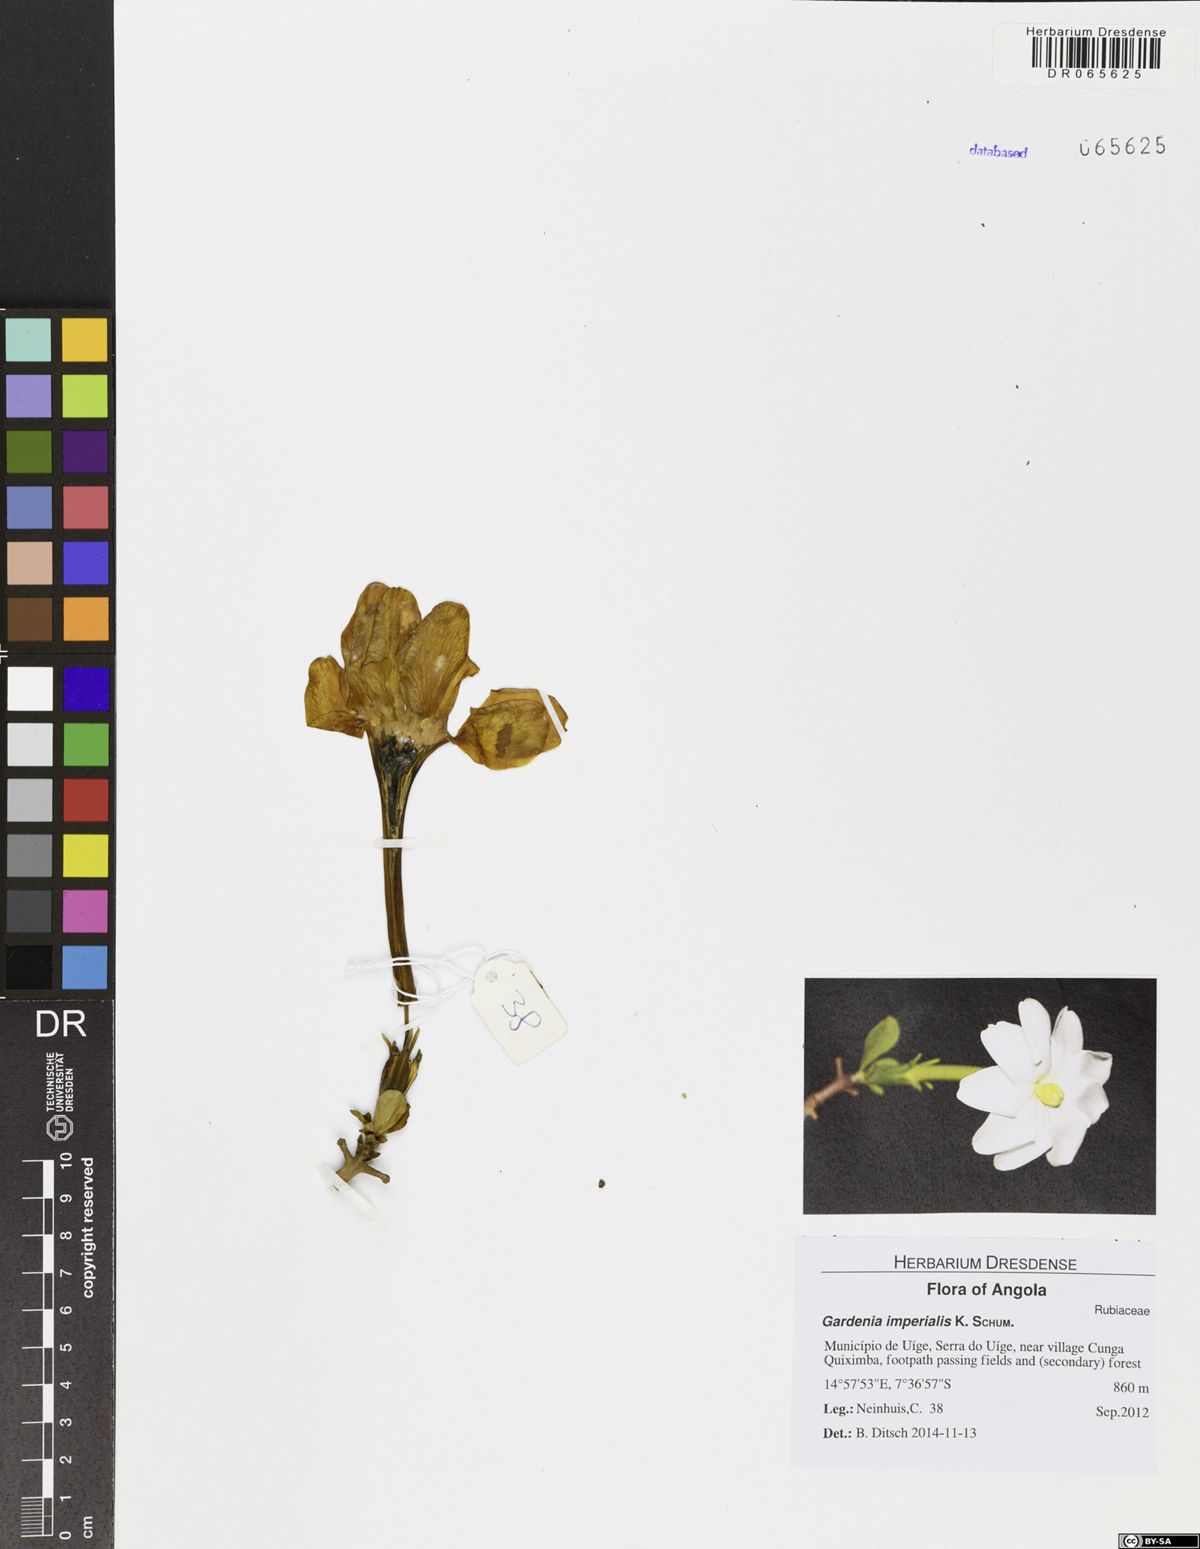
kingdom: Plantae
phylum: Tracheophyta
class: Magnoliopsida
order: Gentianales
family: Rubiaceae
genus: Gardenia
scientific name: Gardenia imperialis
